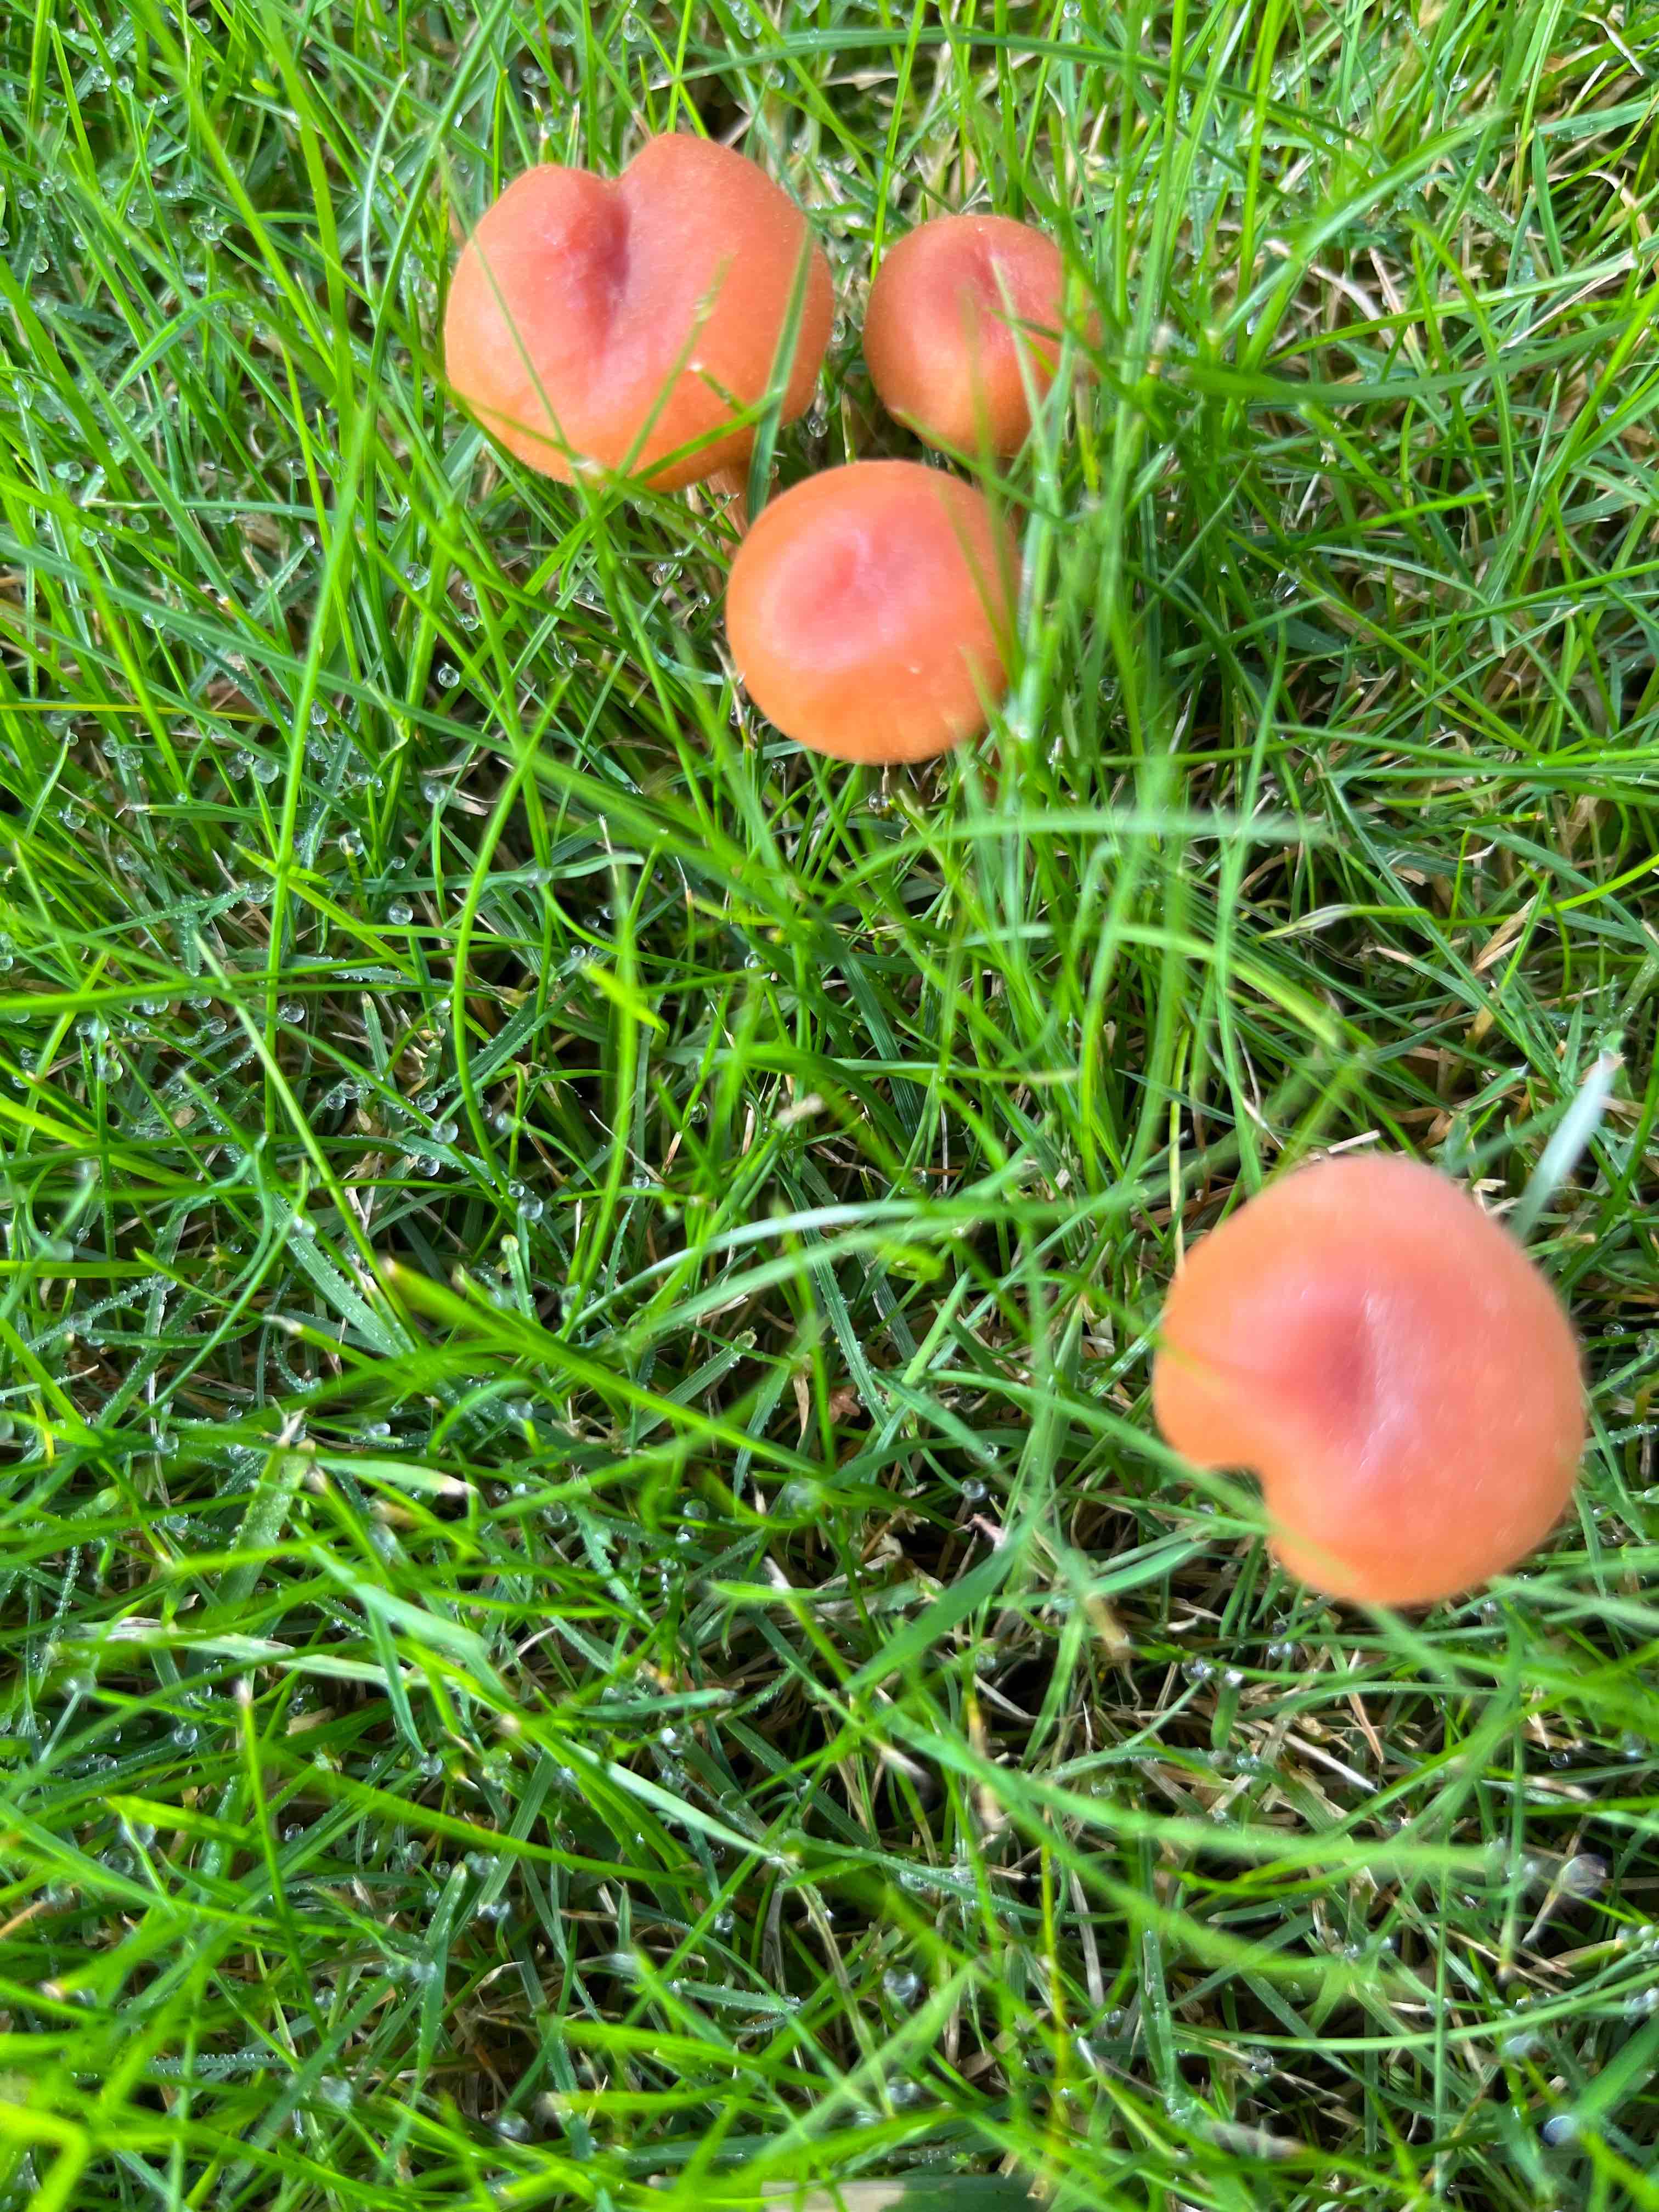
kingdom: Fungi
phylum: Basidiomycota
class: Agaricomycetes
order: Agaricales
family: Hydnangiaceae
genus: Laccaria
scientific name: Laccaria laccata
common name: rød ametysthat
